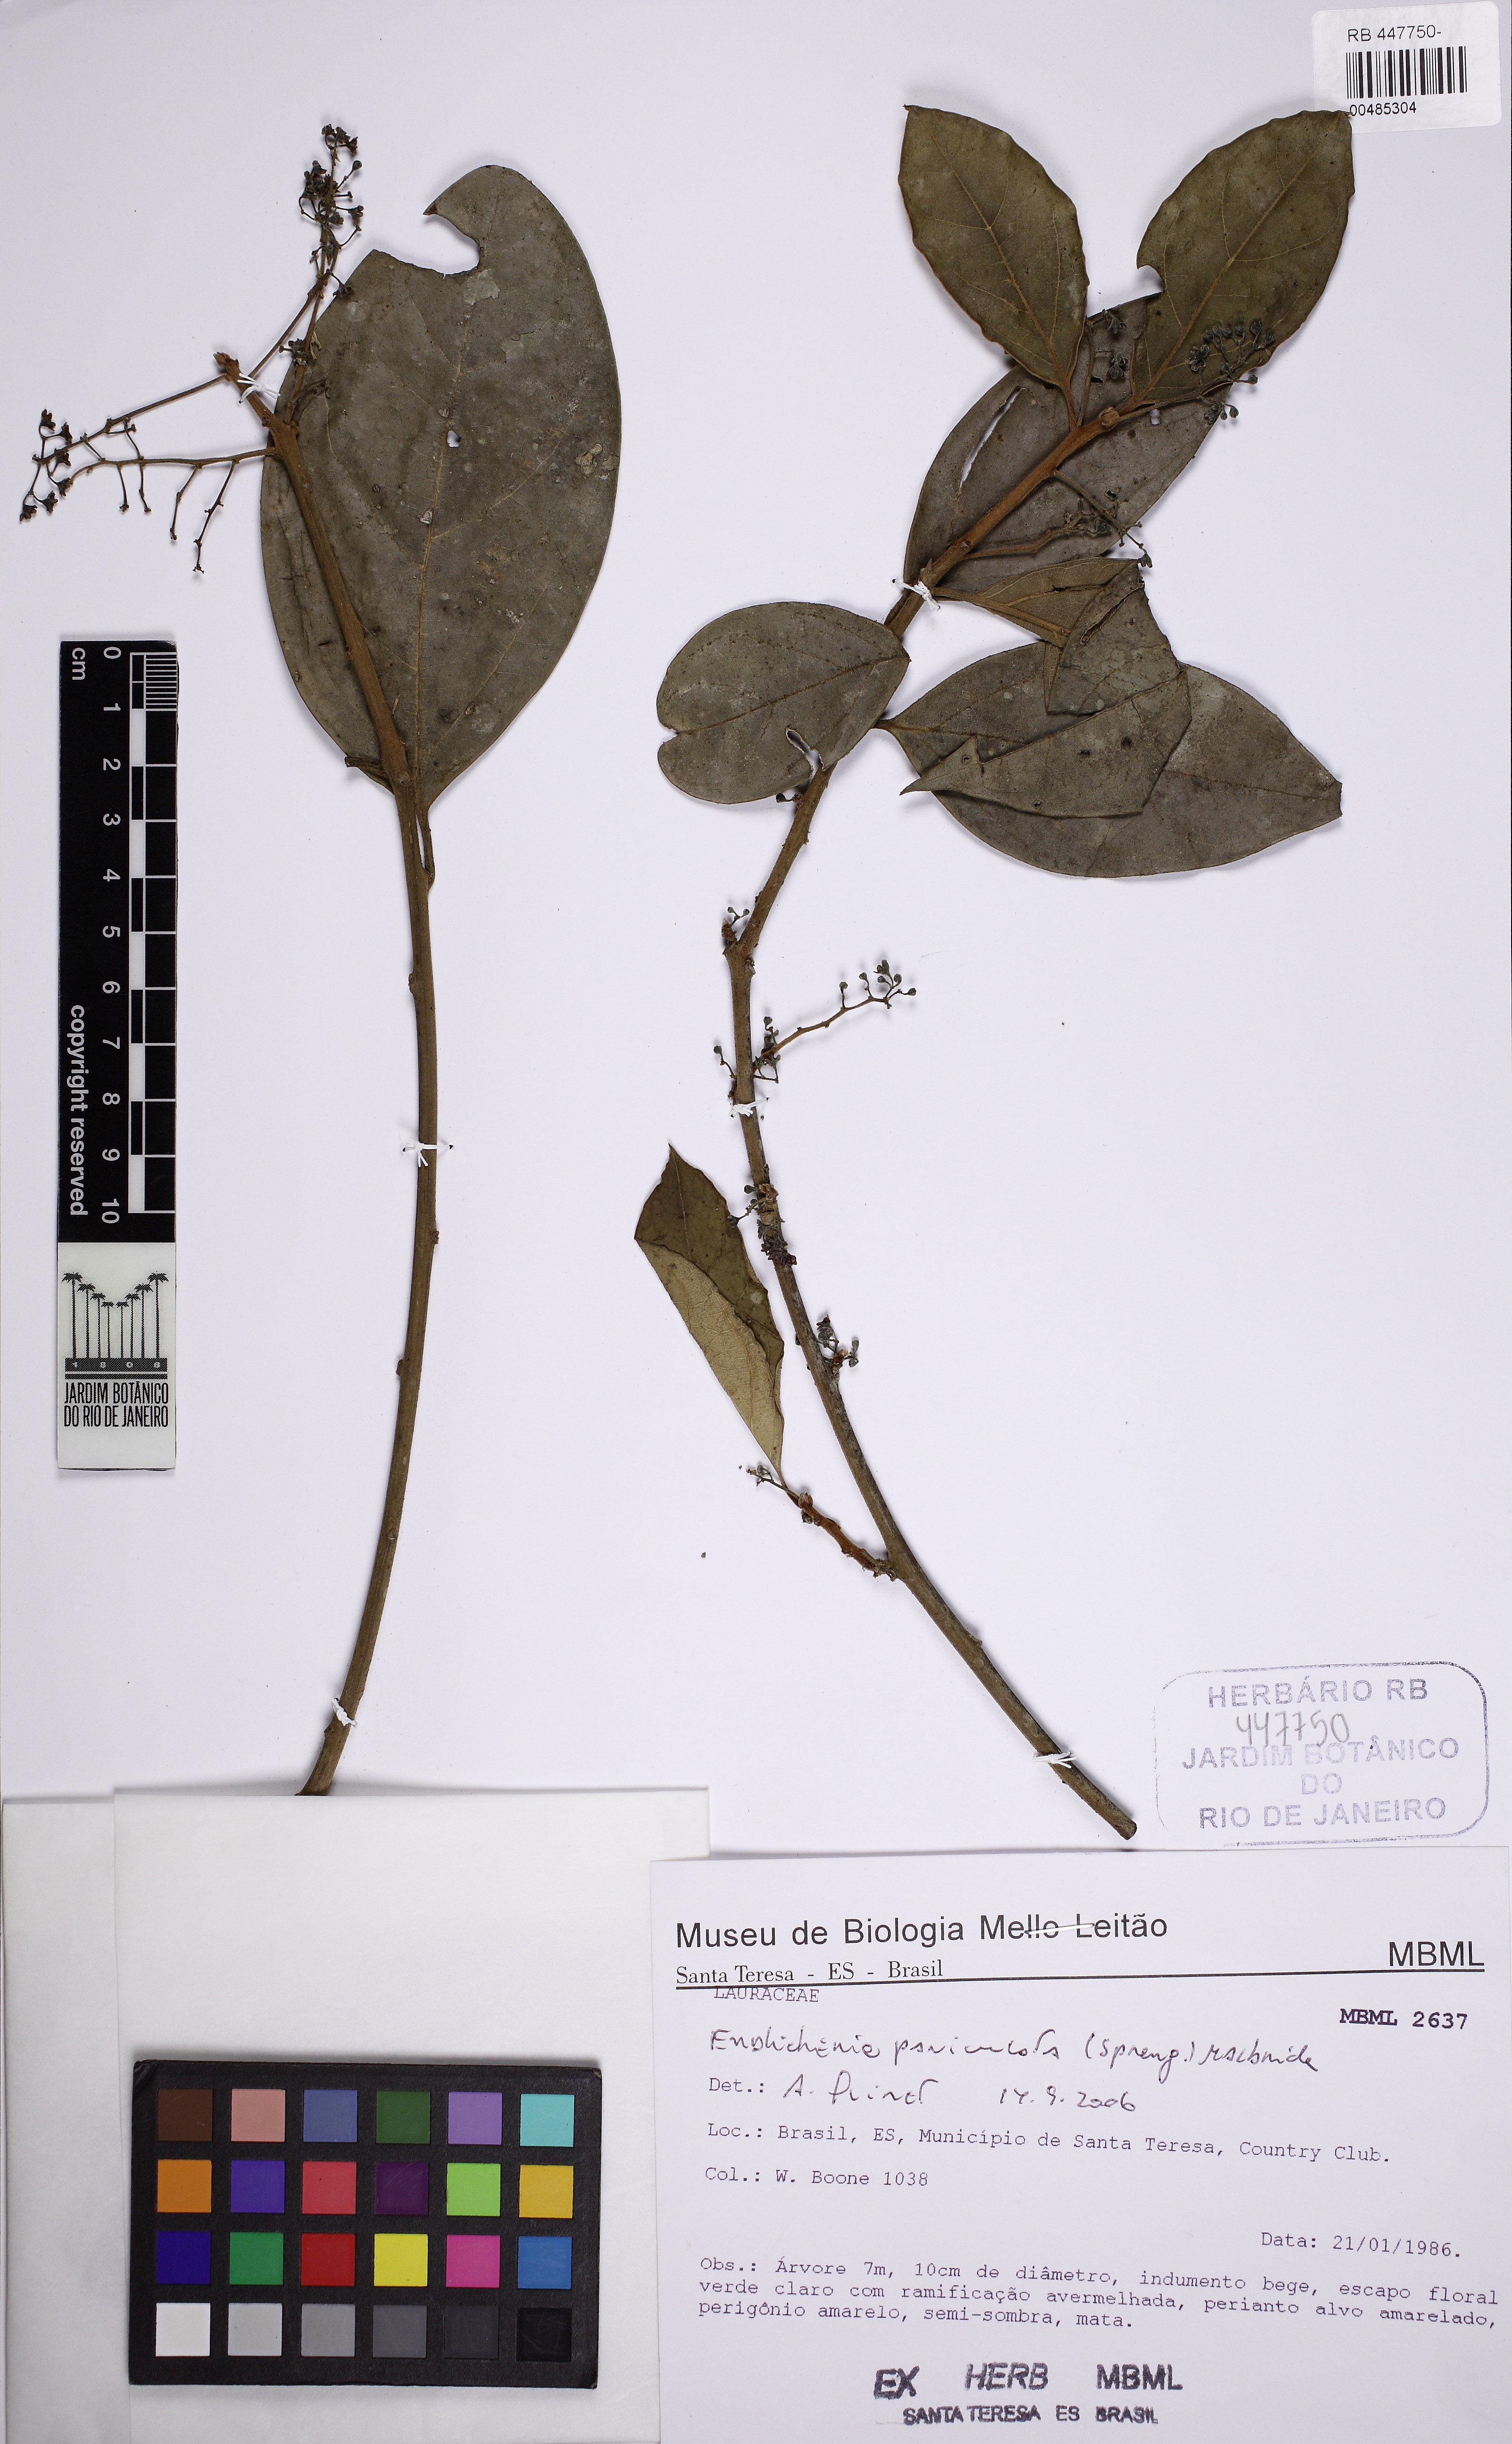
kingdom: Plantae
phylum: Tracheophyta
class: Magnoliopsida
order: Laurales
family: Lauraceae
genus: Endlicheria
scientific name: Endlicheria paniculata
